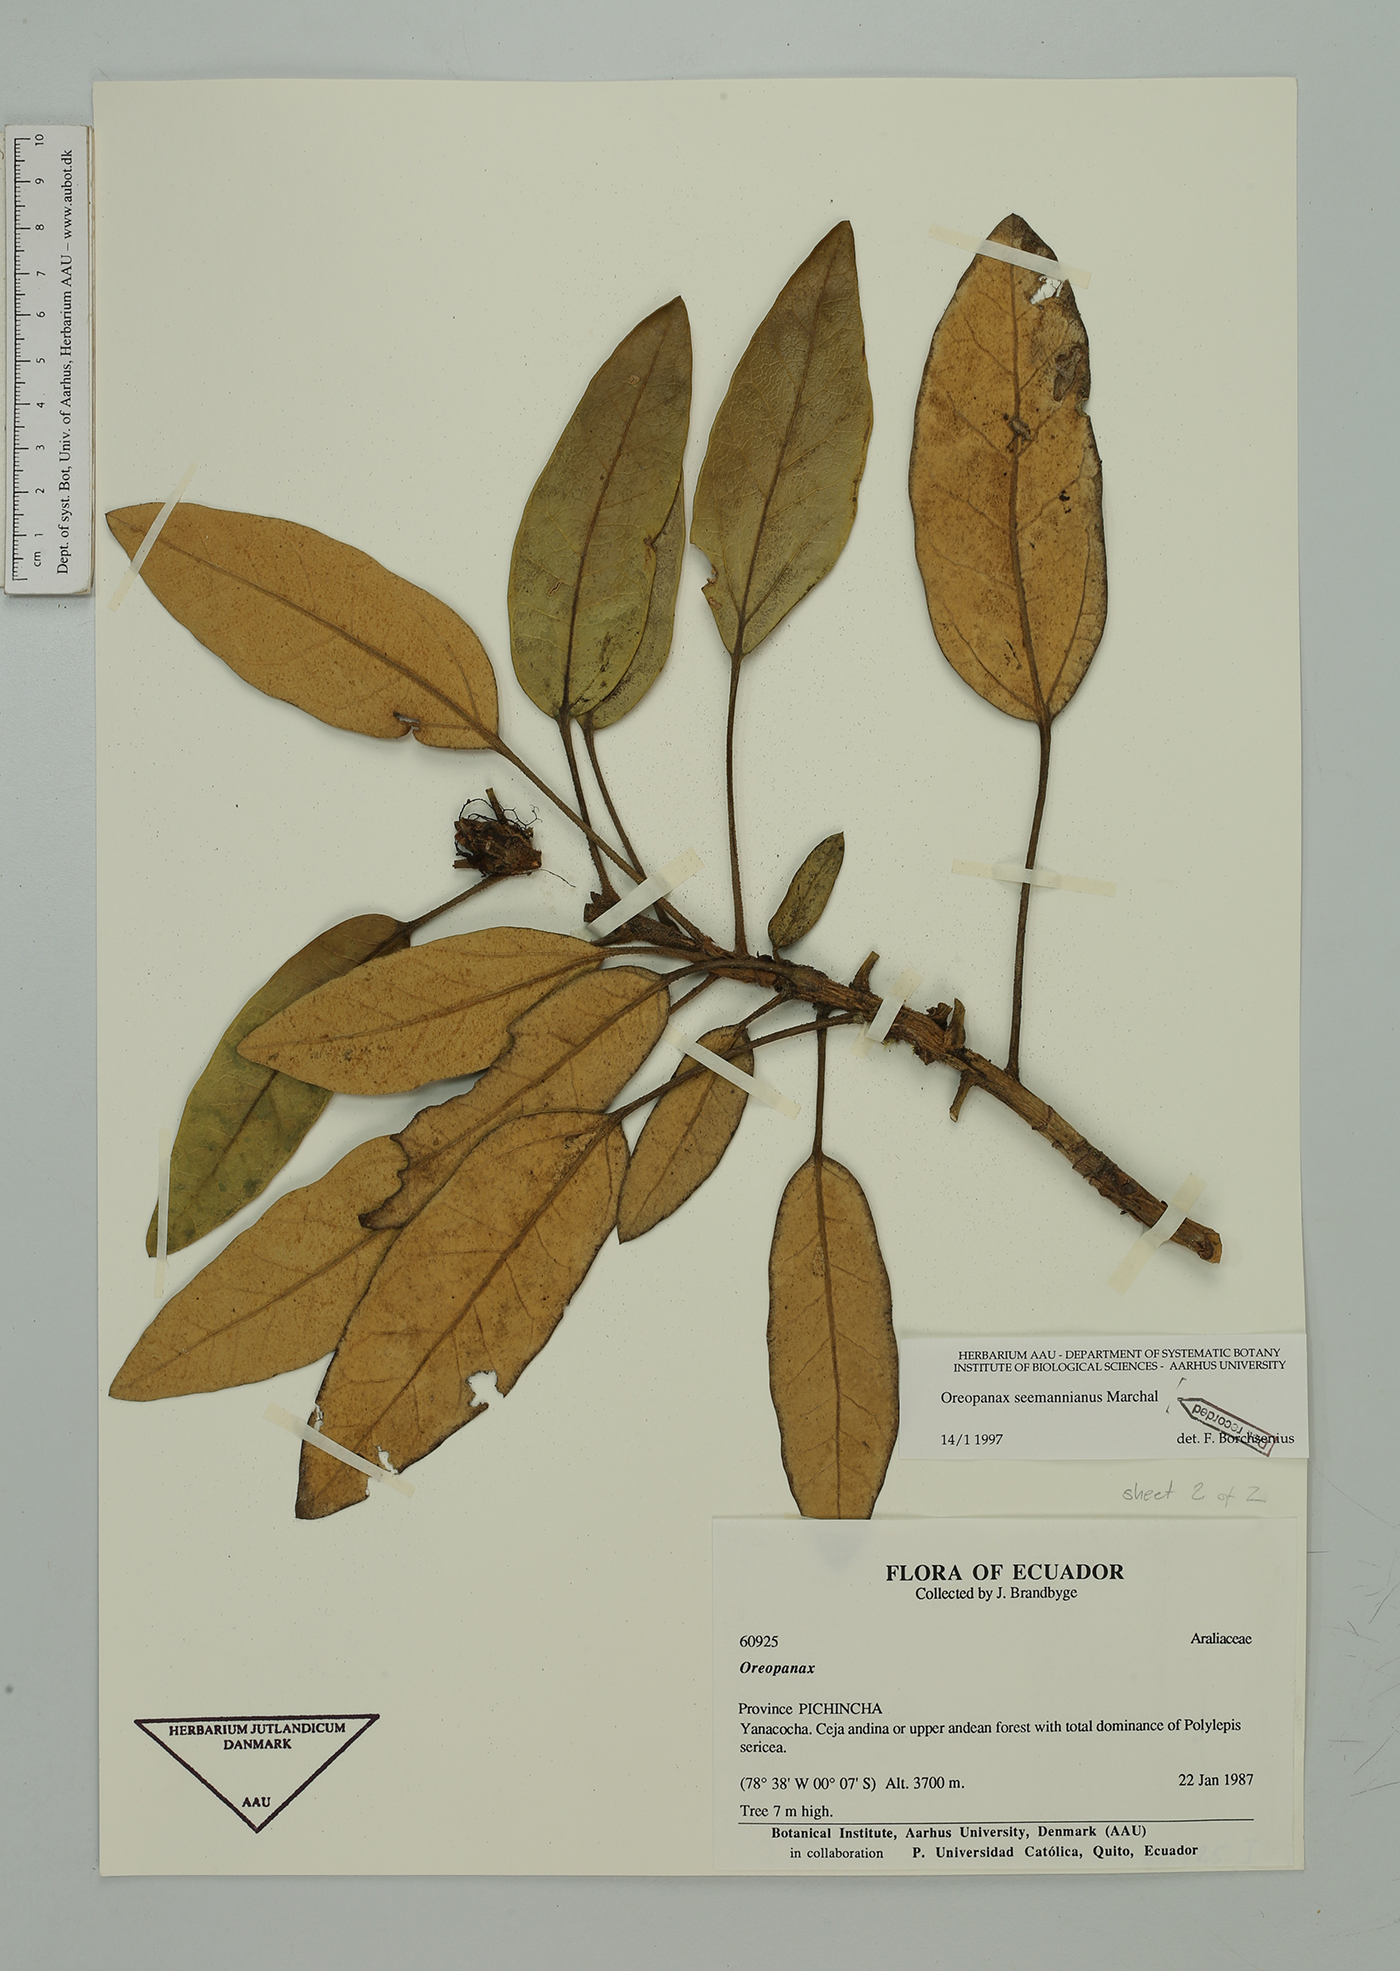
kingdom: Plantae
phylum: Tracheophyta
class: Magnoliopsida
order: Apiales
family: Araliaceae
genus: Oreopanax
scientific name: Oreopanax seemannianus
